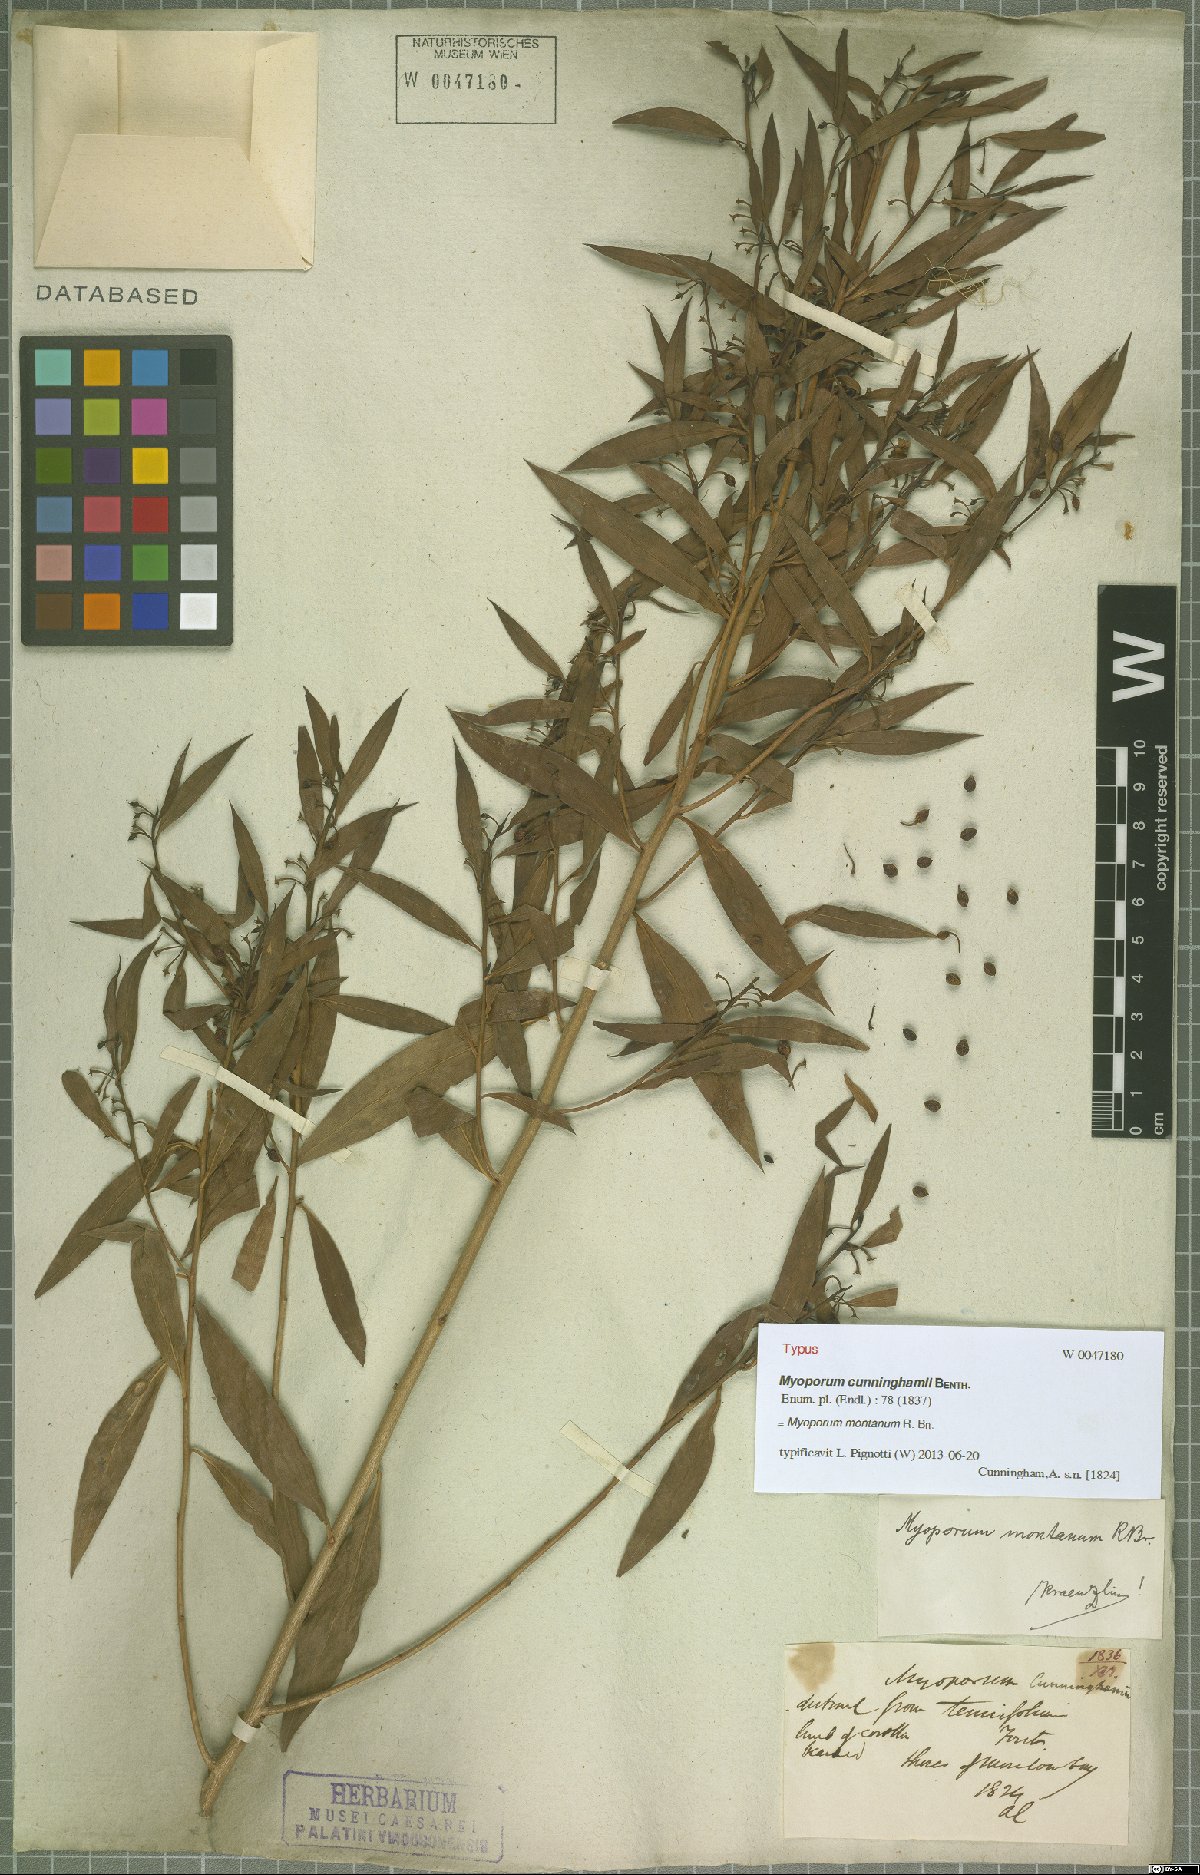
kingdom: Plantae
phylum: Tracheophyta
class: Magnoliopsida
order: Lamiales
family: Scrophulariaceae
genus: Myoporum
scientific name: Myoporum montanum
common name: Waterbush
